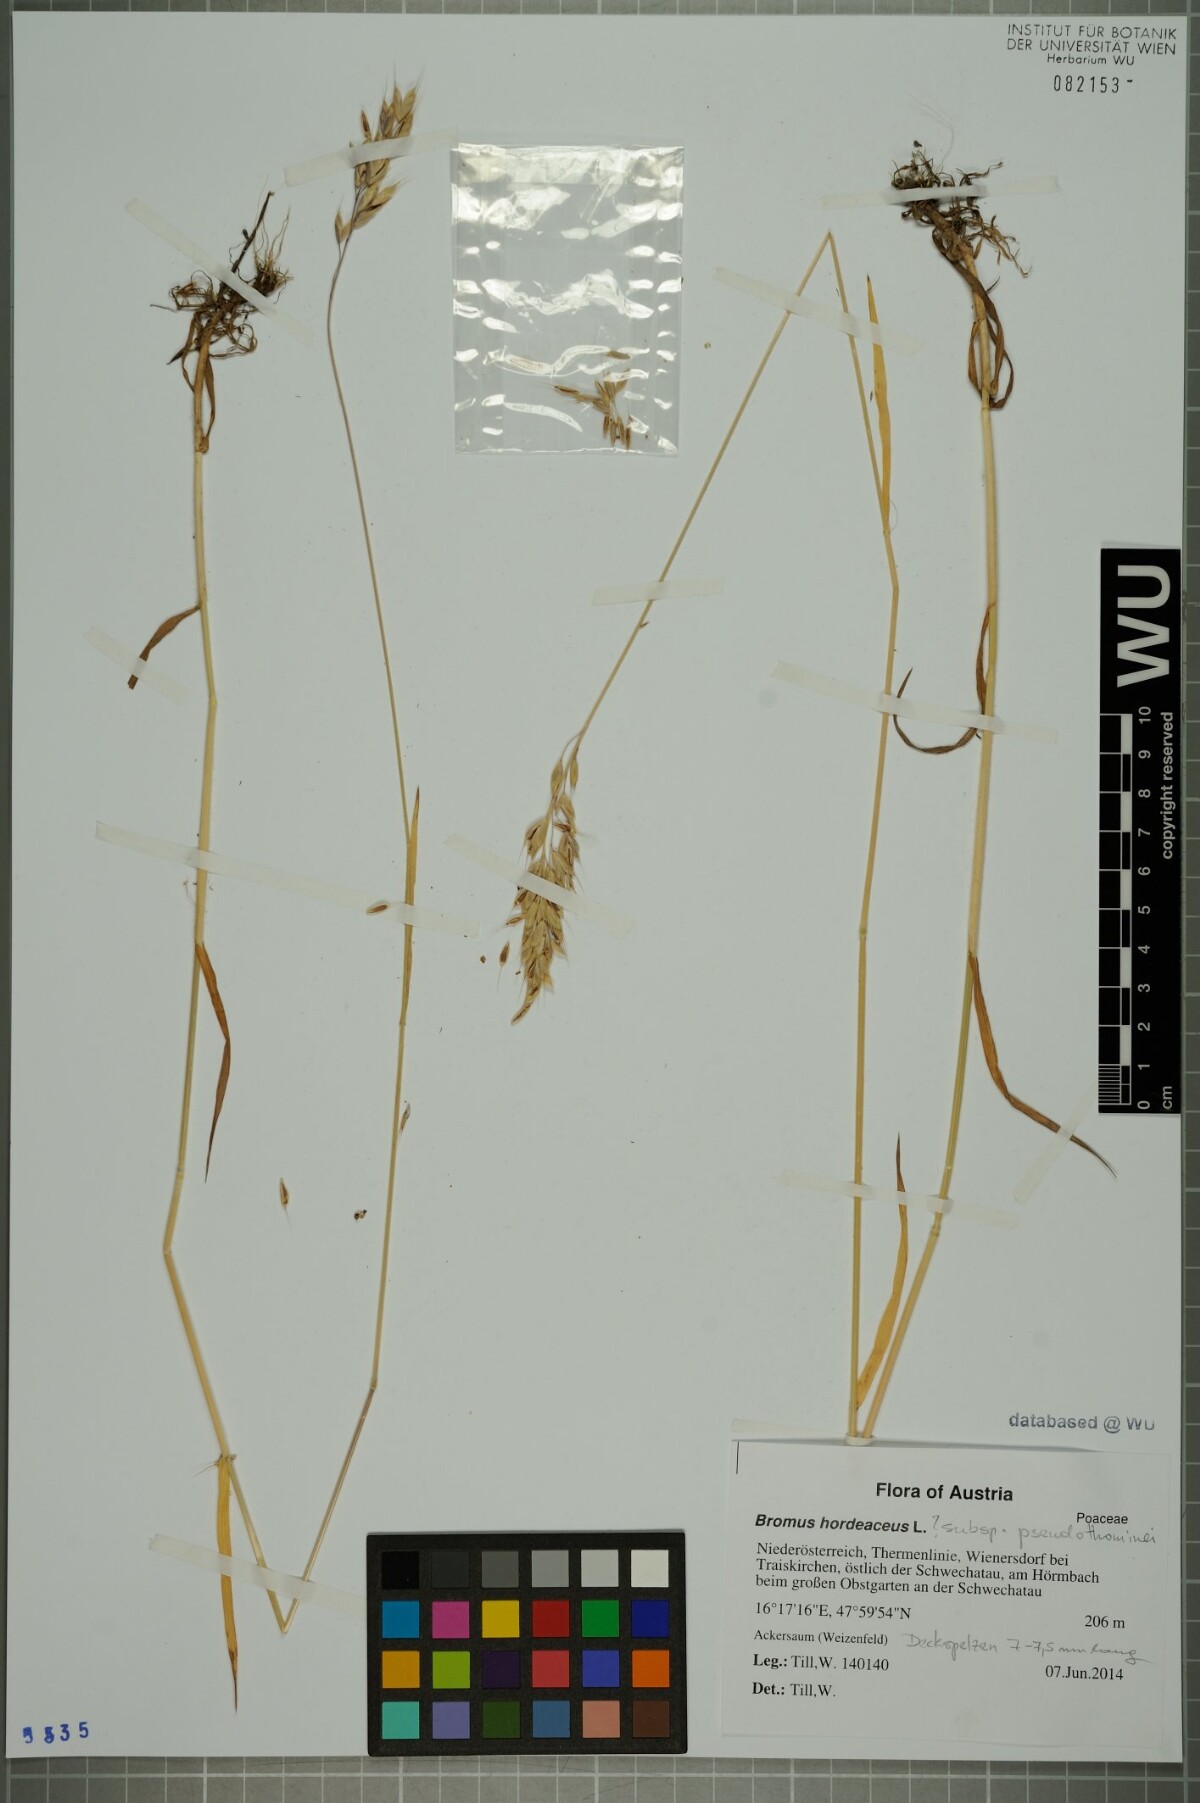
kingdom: Plantae
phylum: Tracheophyta
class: Liliopsida
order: Poales
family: Poaceae
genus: Bromus
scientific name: Bromus ferronii
